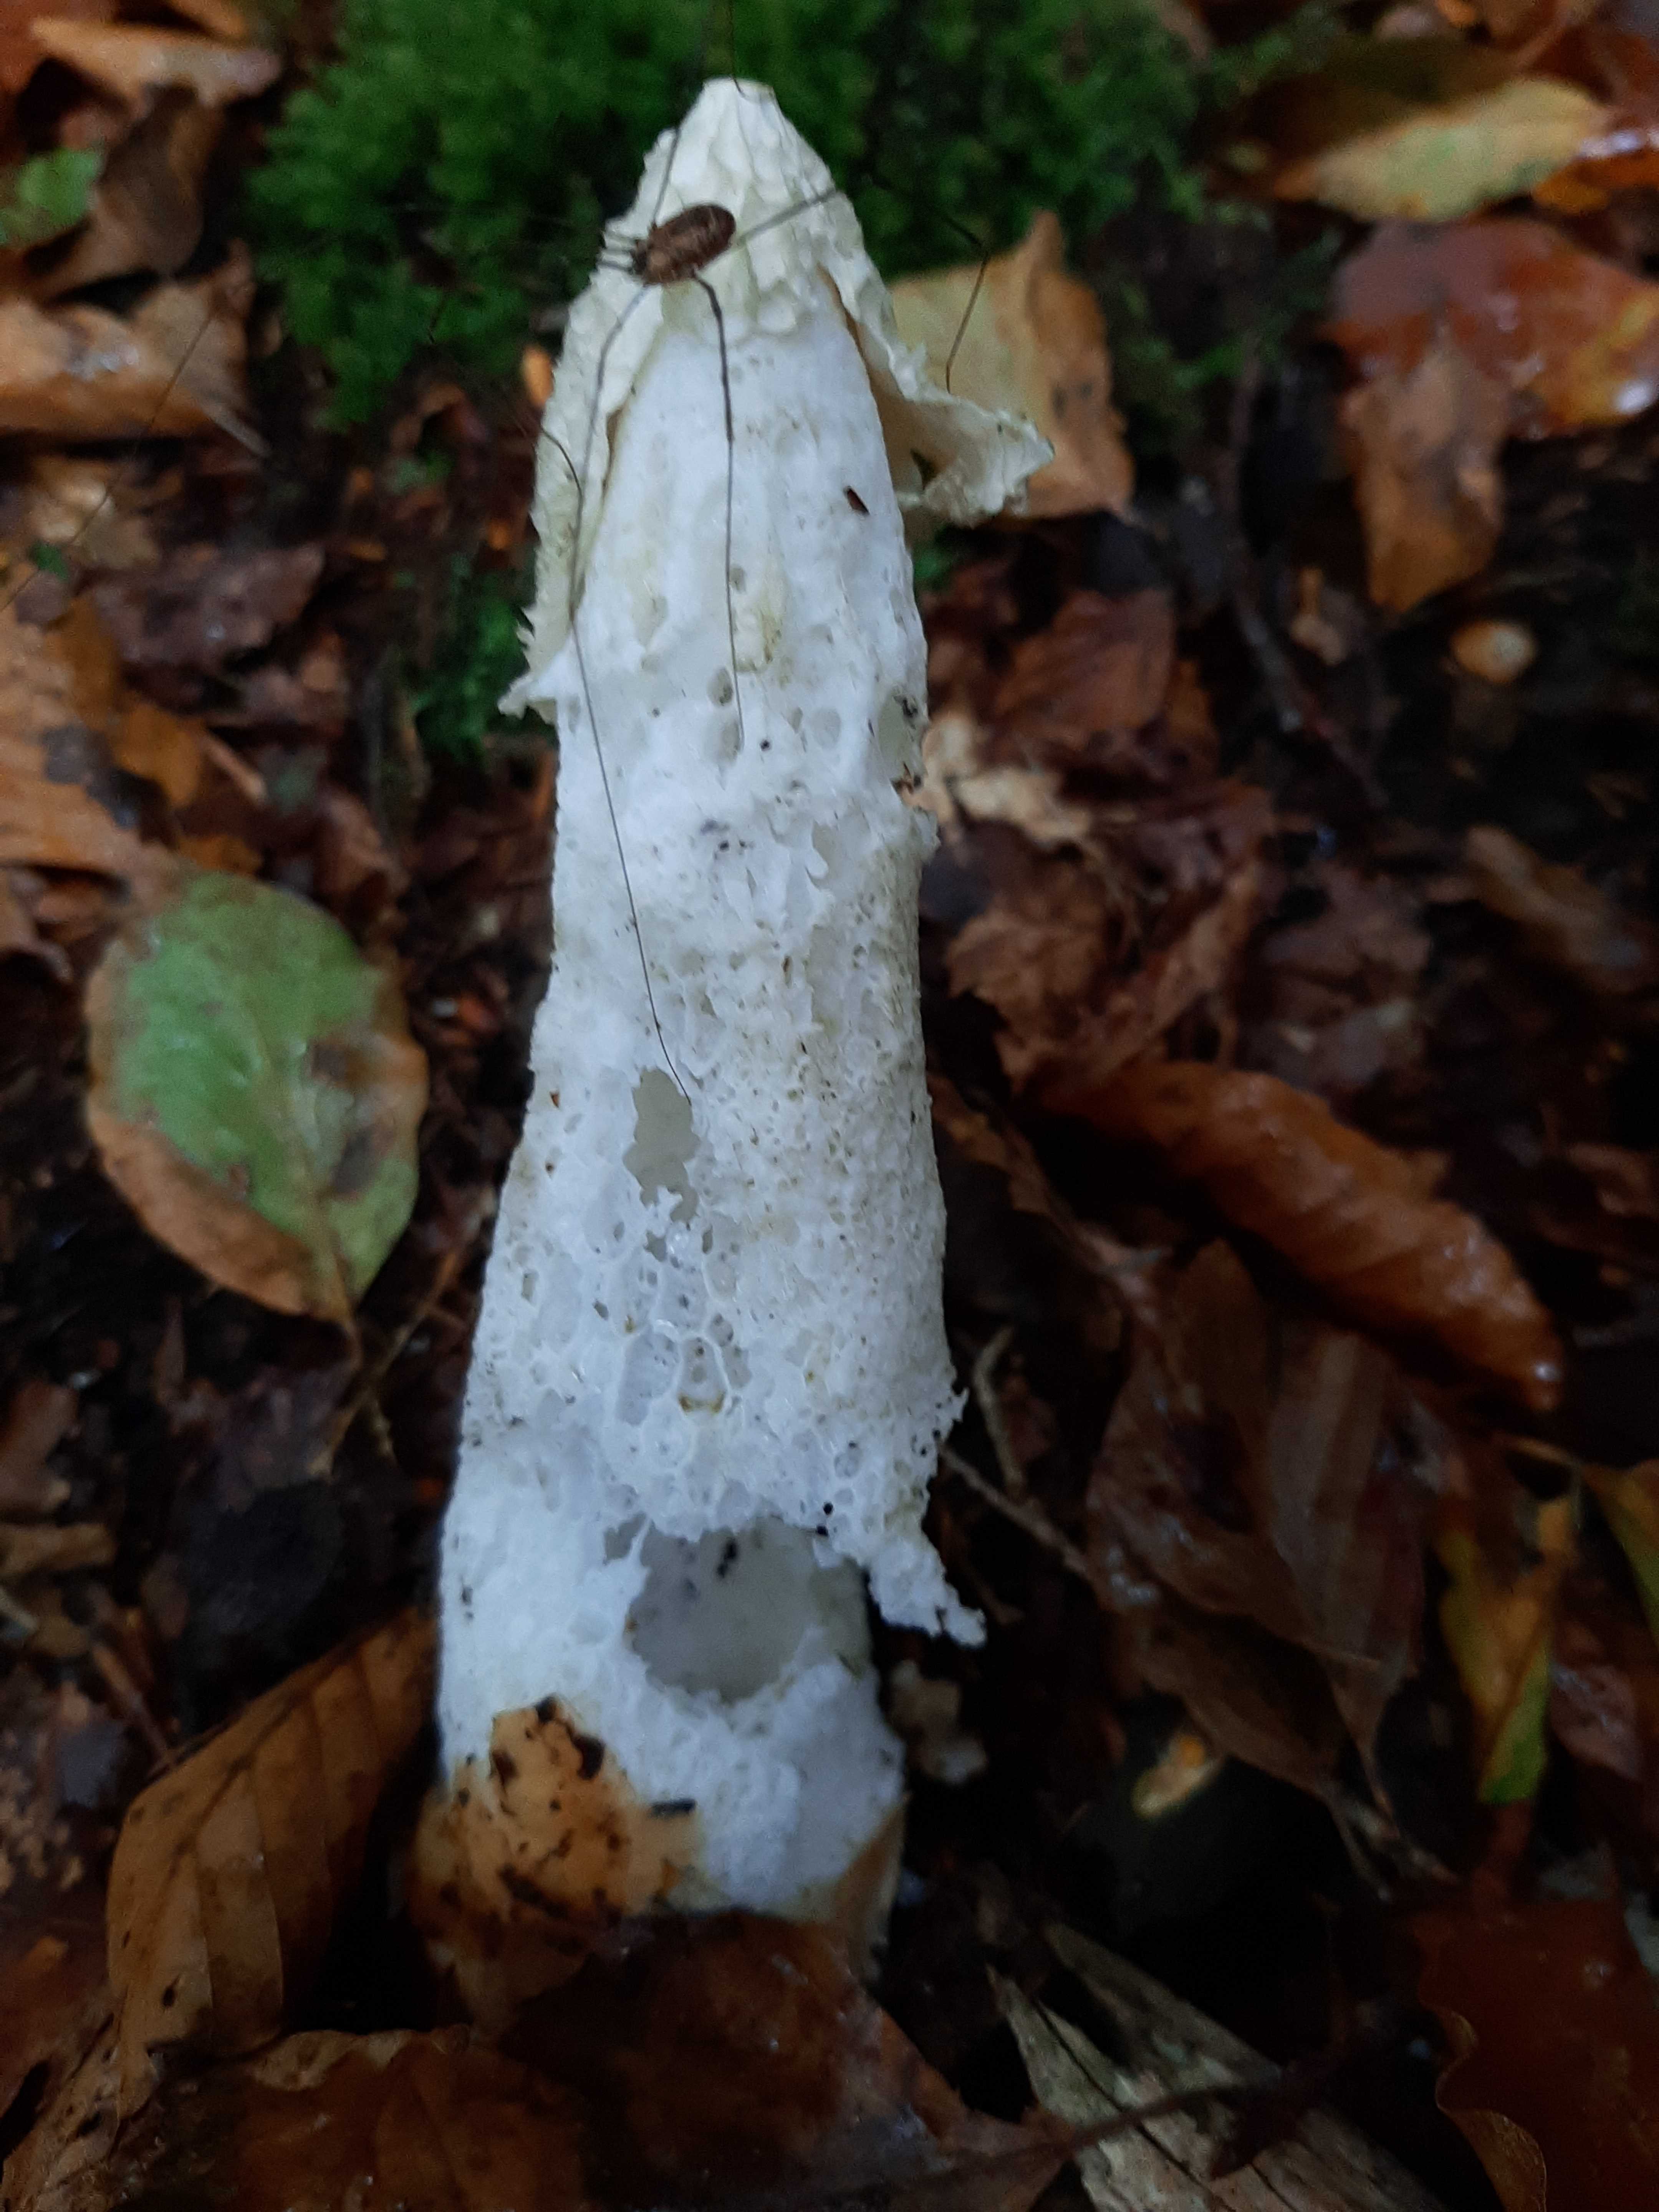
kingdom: Fungi
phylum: Basidiomycota
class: Agaricomycetes
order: Phallales
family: Phallaceae
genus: Phallus
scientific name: Phallus impudicus
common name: almindelig stinksvamp
